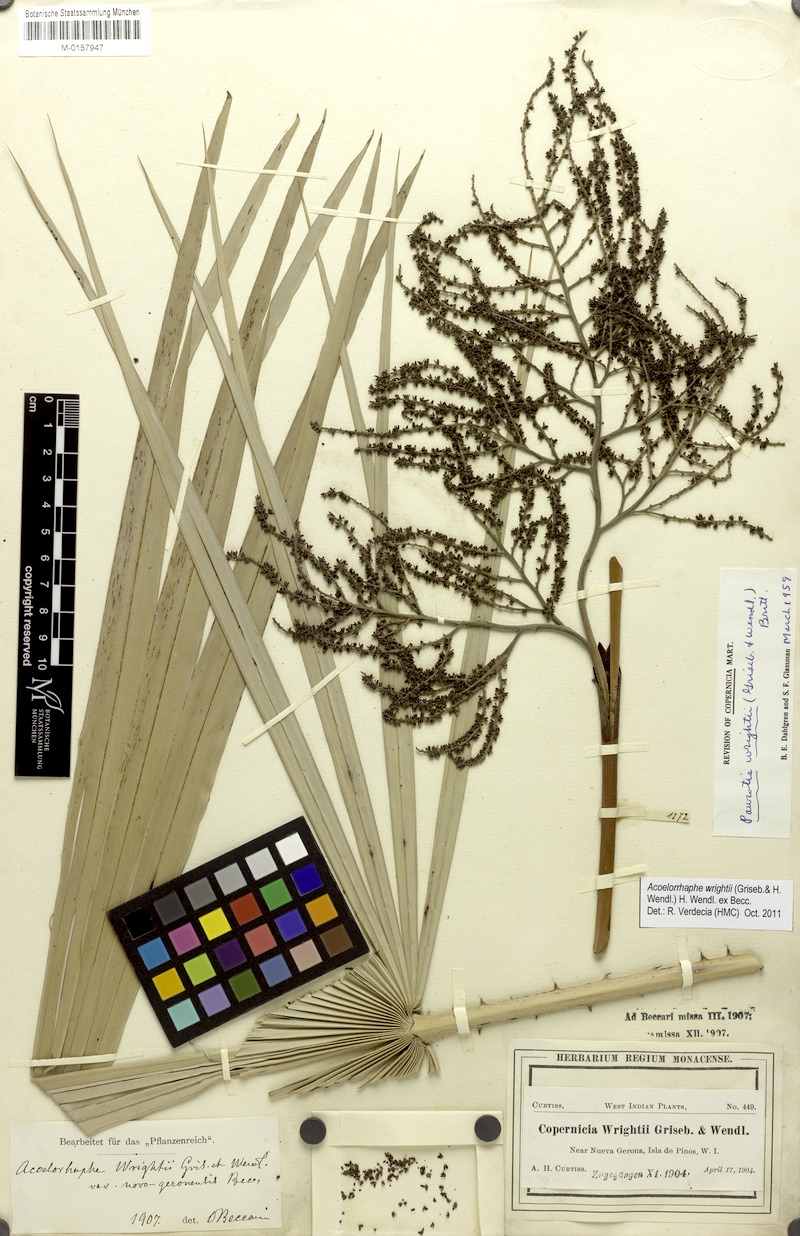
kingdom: Plantae
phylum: Tracheophyta
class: Liliopsida
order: Arecales
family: Arecaceae
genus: Acoelorraphe
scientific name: Acoelorraphe wrightii
